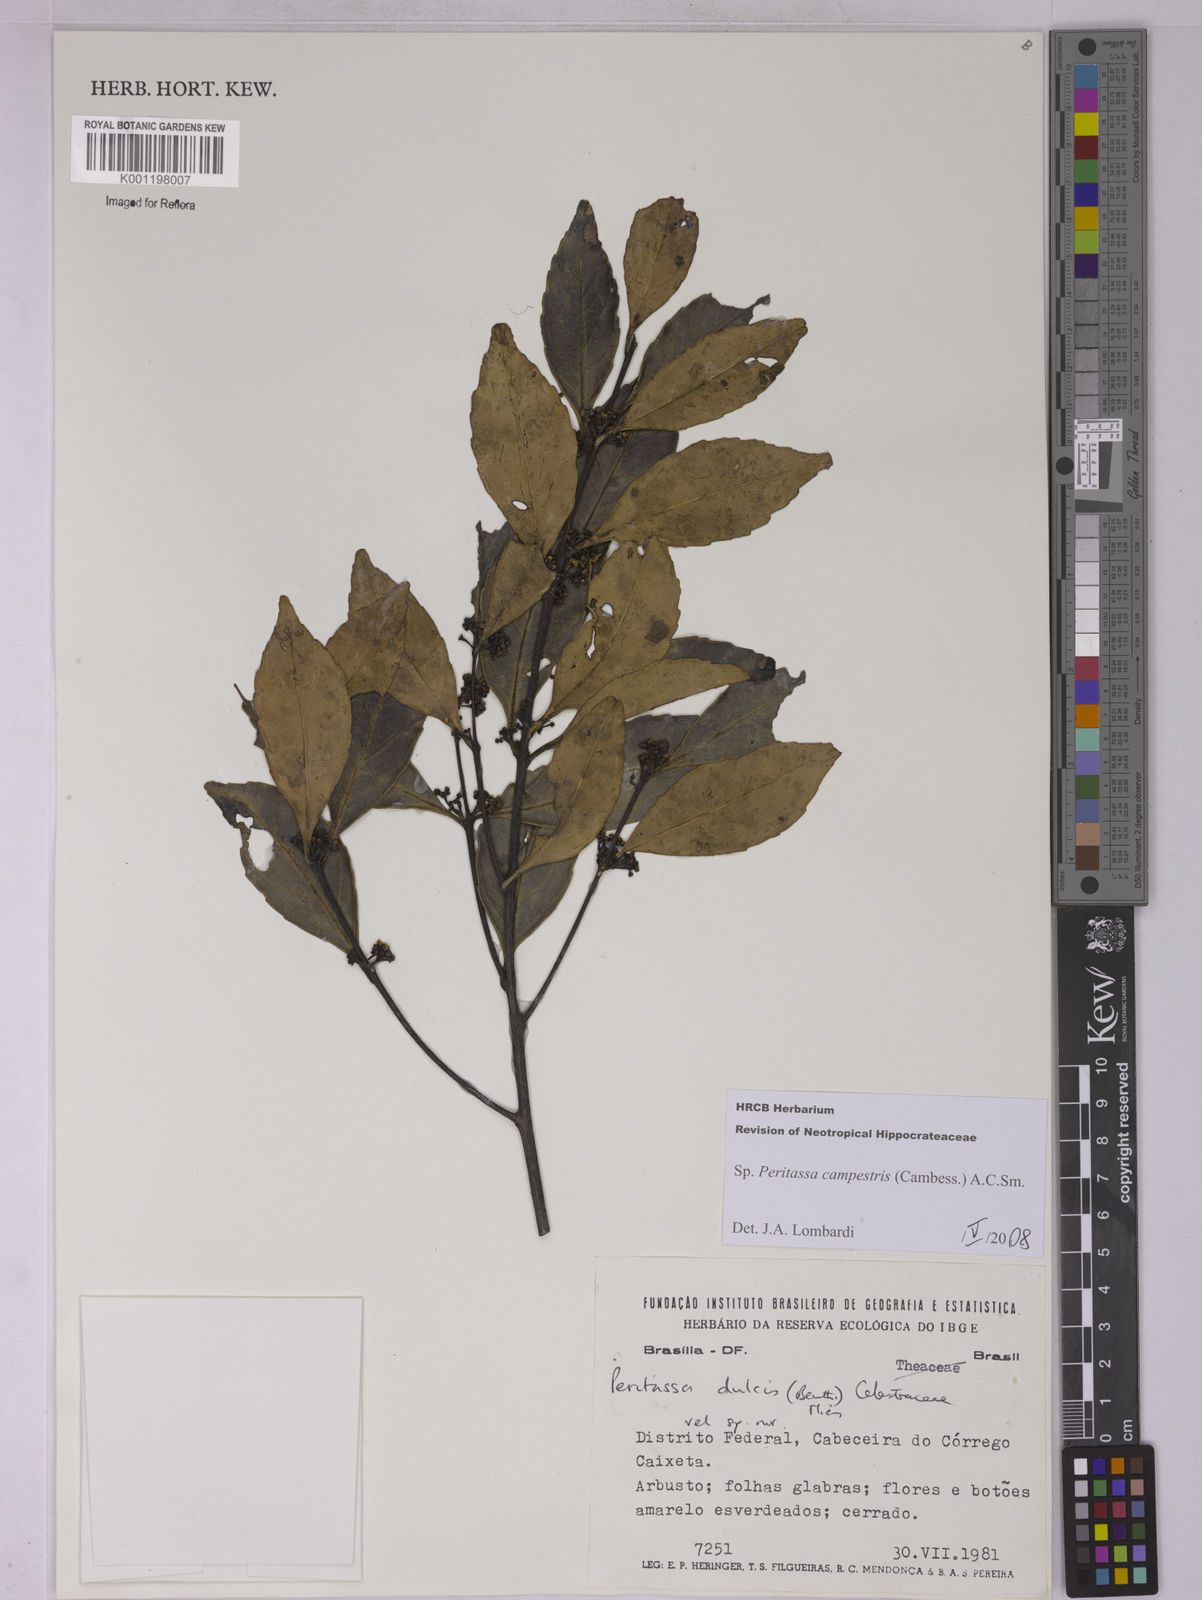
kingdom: Plantae
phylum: Tracheophyta
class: Magnoliopsida
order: Celastrales
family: Celastraceae
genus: Peritassa
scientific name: Peritassa campestris
